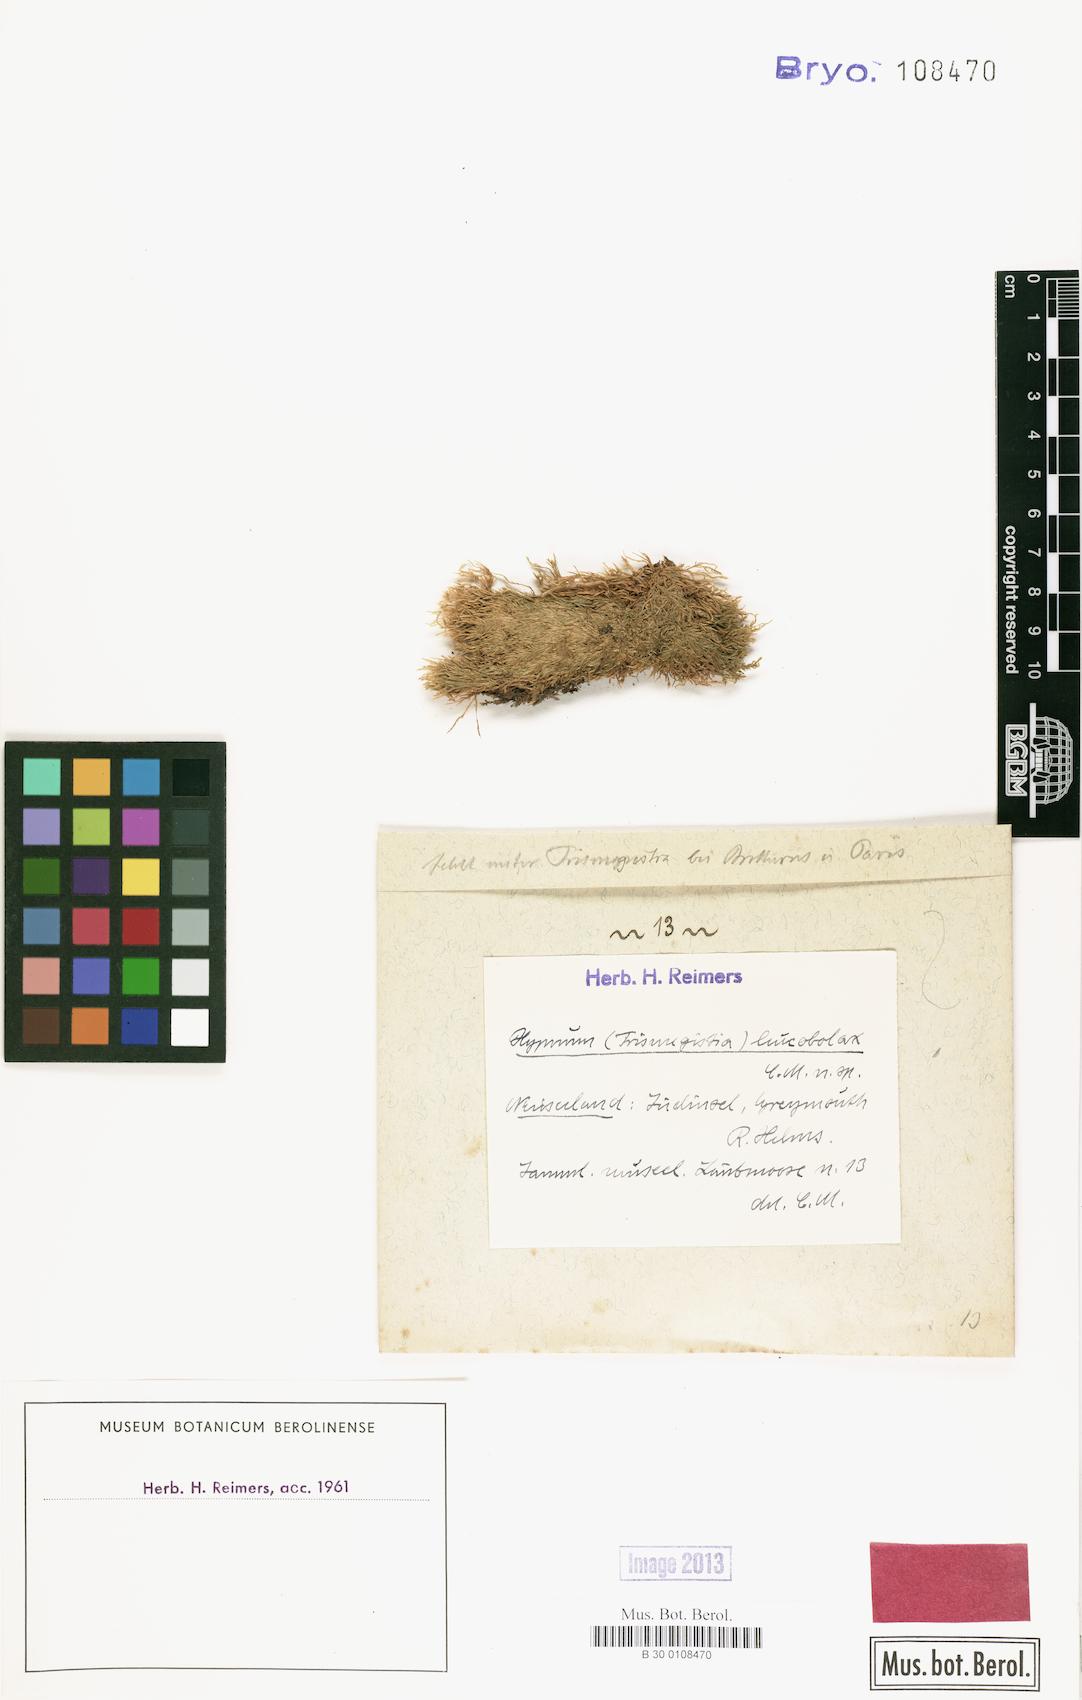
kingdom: Plantae
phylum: Bryophyta
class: Bryopsida
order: Hypnales
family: Hypnaceae
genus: Hypnum
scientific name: Hypnum
